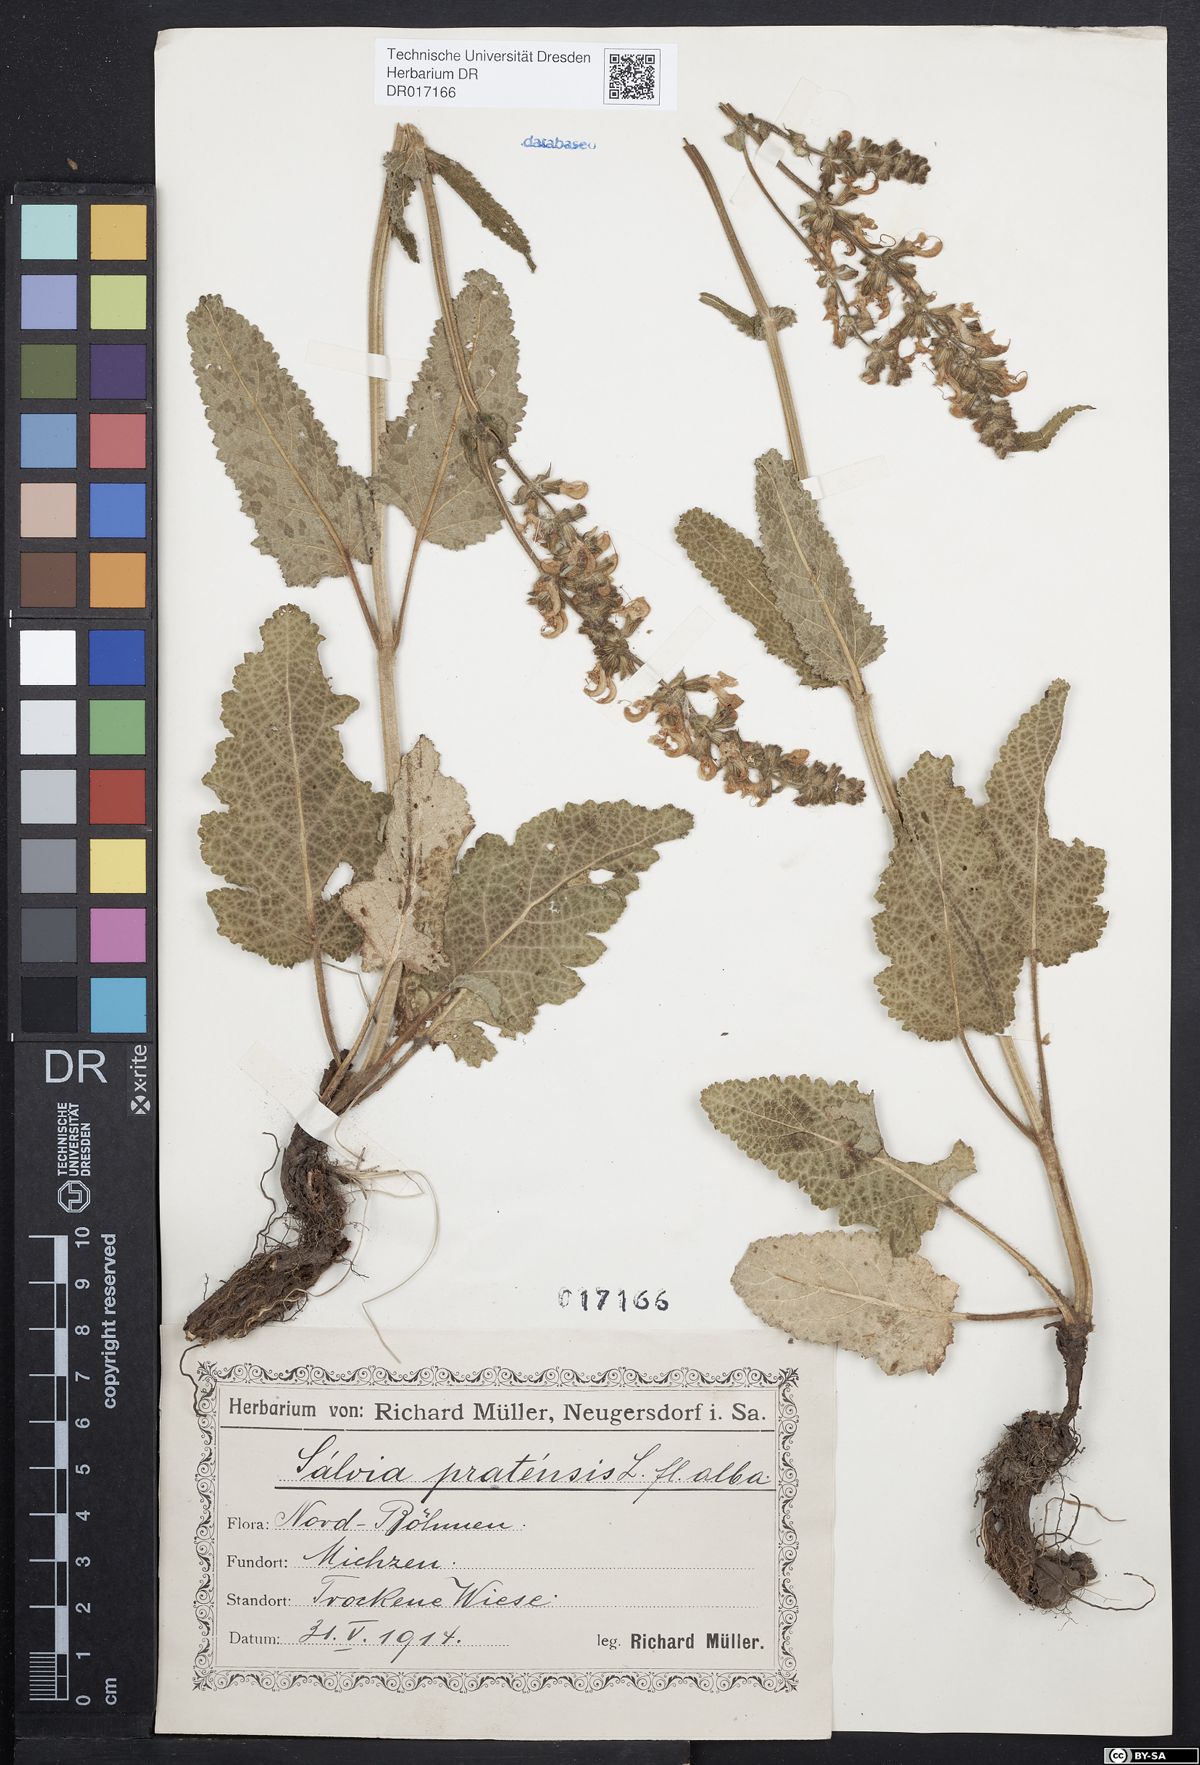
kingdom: Plantae
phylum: Tracheophyta
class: Magnoliopsida
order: Lamiales
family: Lamiaceae
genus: Salvia
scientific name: Salvia pratensis
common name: Meadow sage
